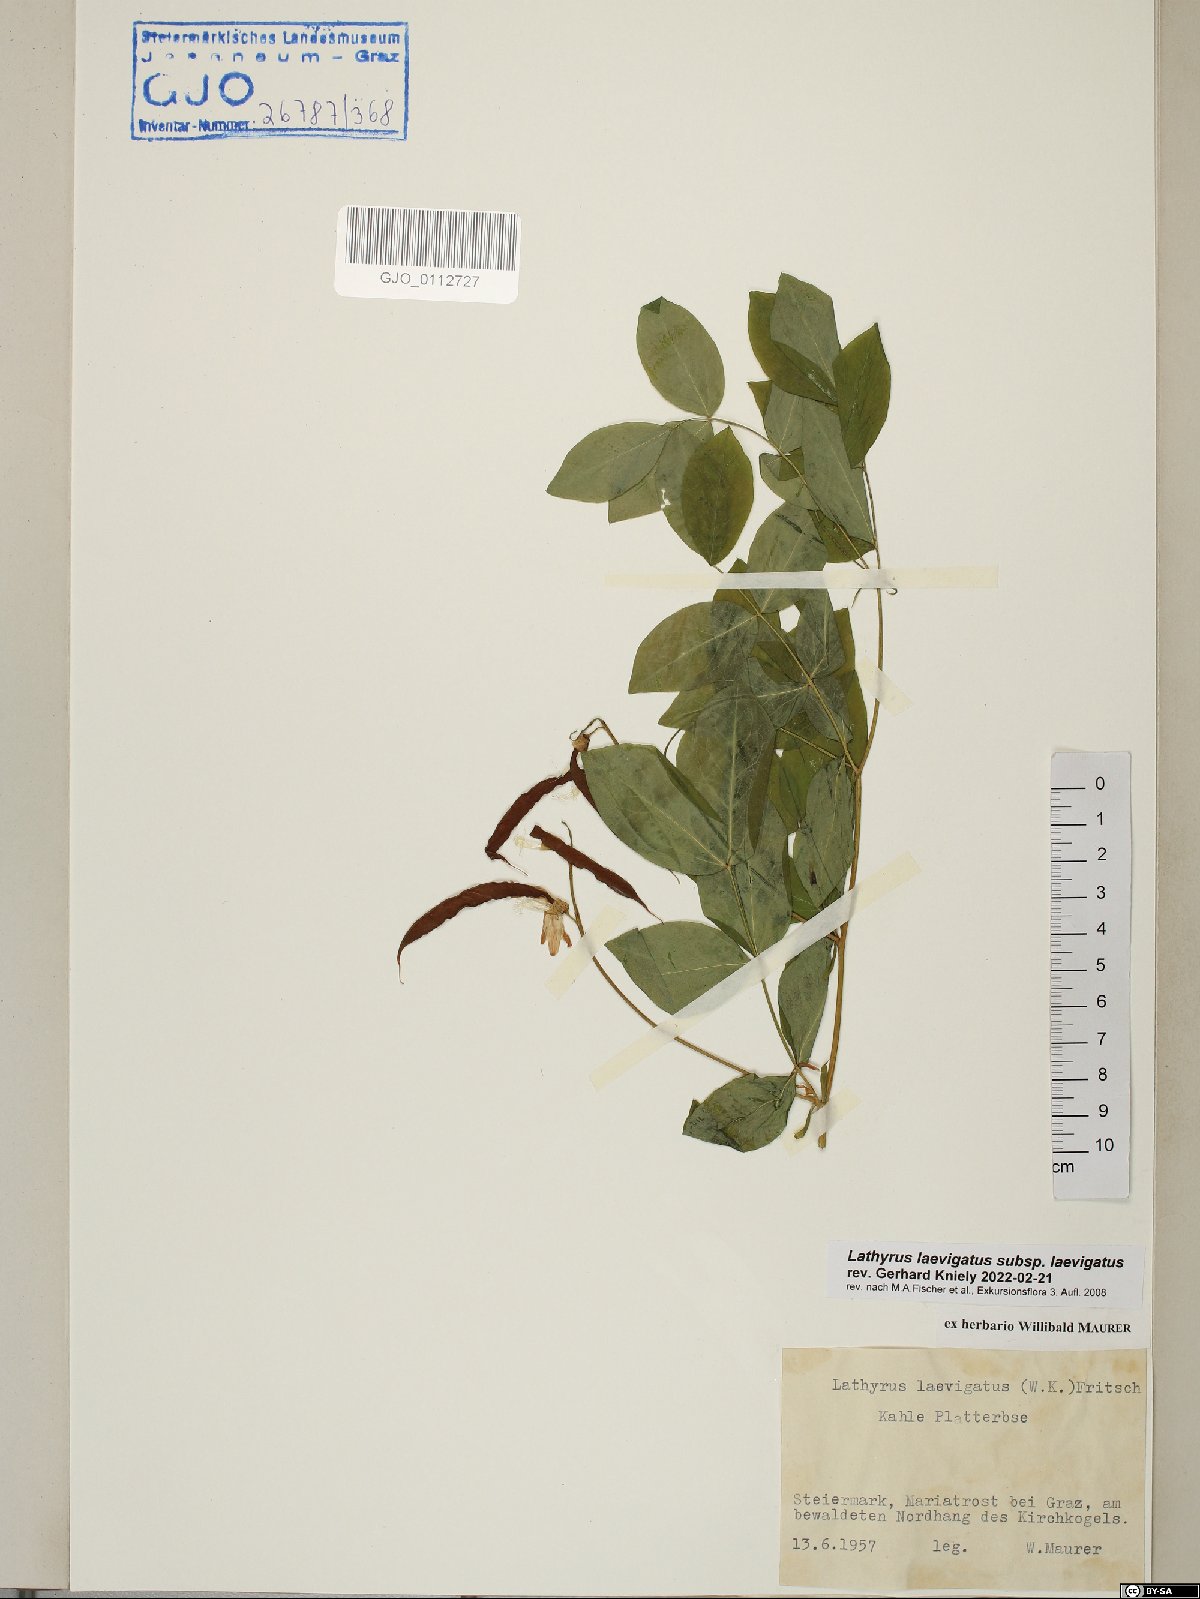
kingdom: Plantae
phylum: Tracheophyta
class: Magnoliopsida
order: Fabales
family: Fabaceae
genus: Lathyrus
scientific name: Lathyrus laevigatus
